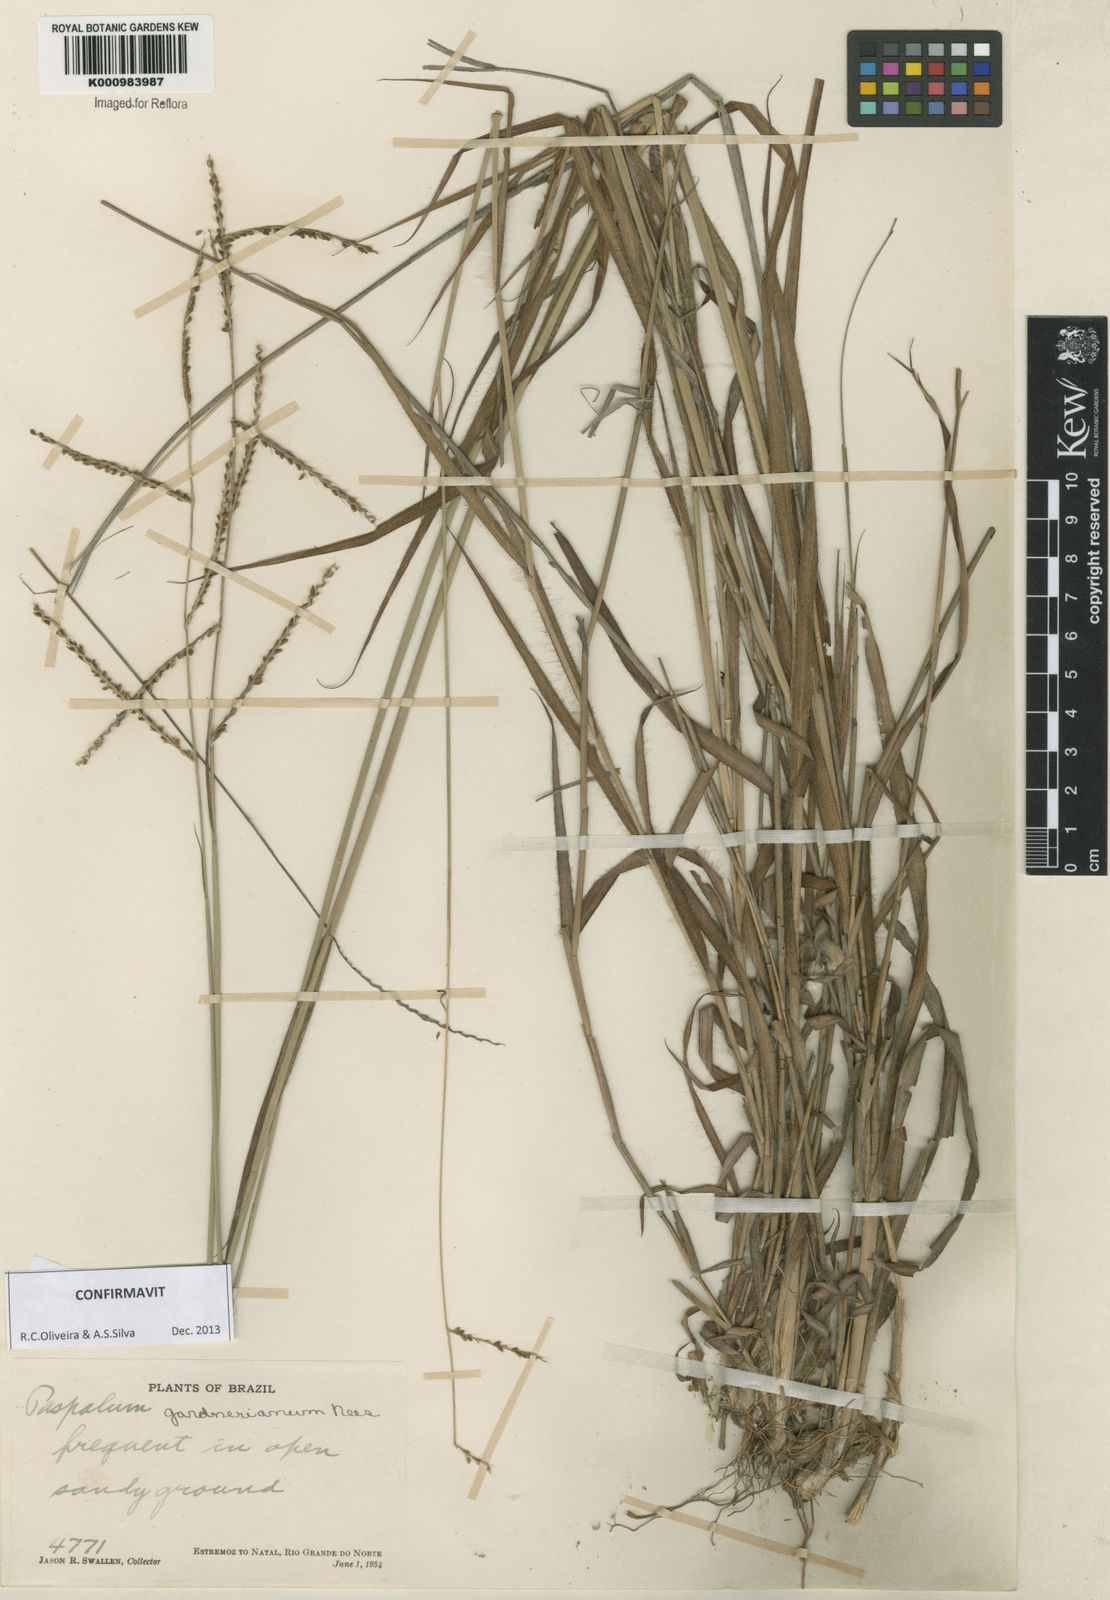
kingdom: Plantae
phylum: Tracheophyta
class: Liliopsida
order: Poales
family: Poaceae
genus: Paspalum
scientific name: Paspalum gardnerianum
